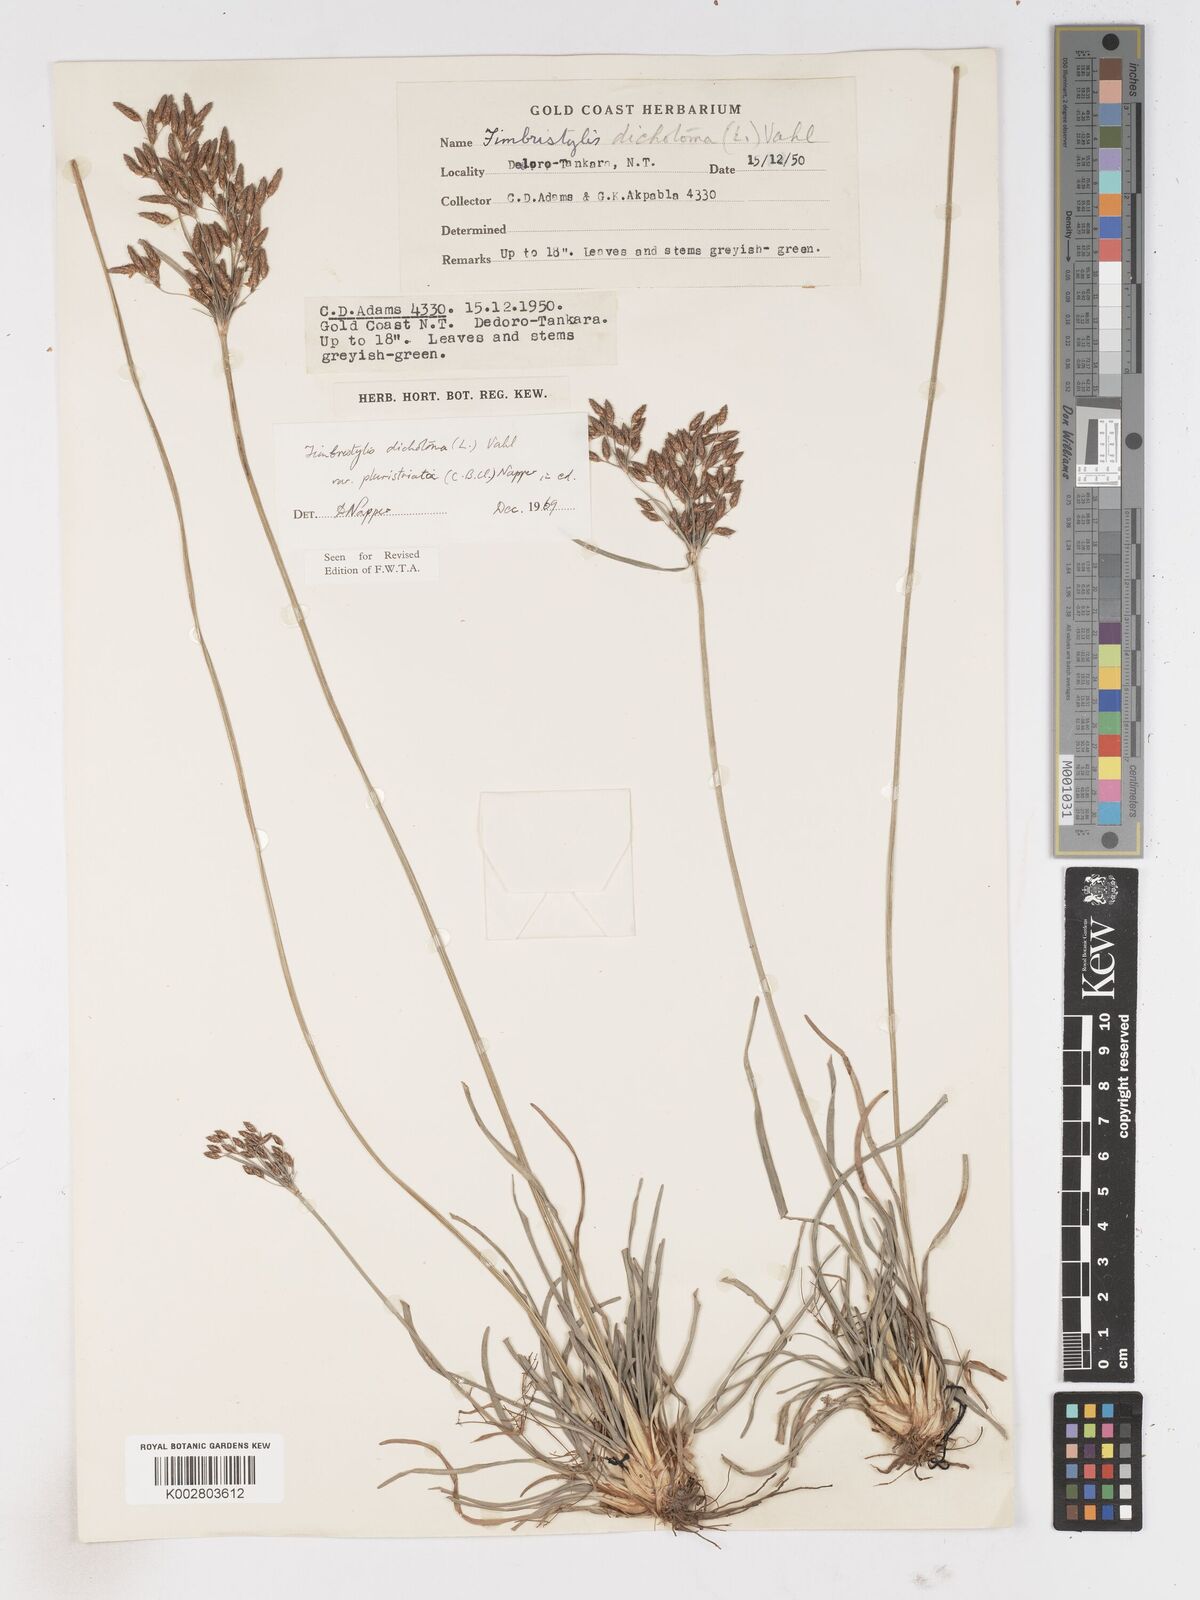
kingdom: Plantae
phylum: Tracheophyta
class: Liliopsida
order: Poales
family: Cyperaceae
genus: Fimbristylis
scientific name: Fimbristylis dichotoma
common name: Forked fimbry
